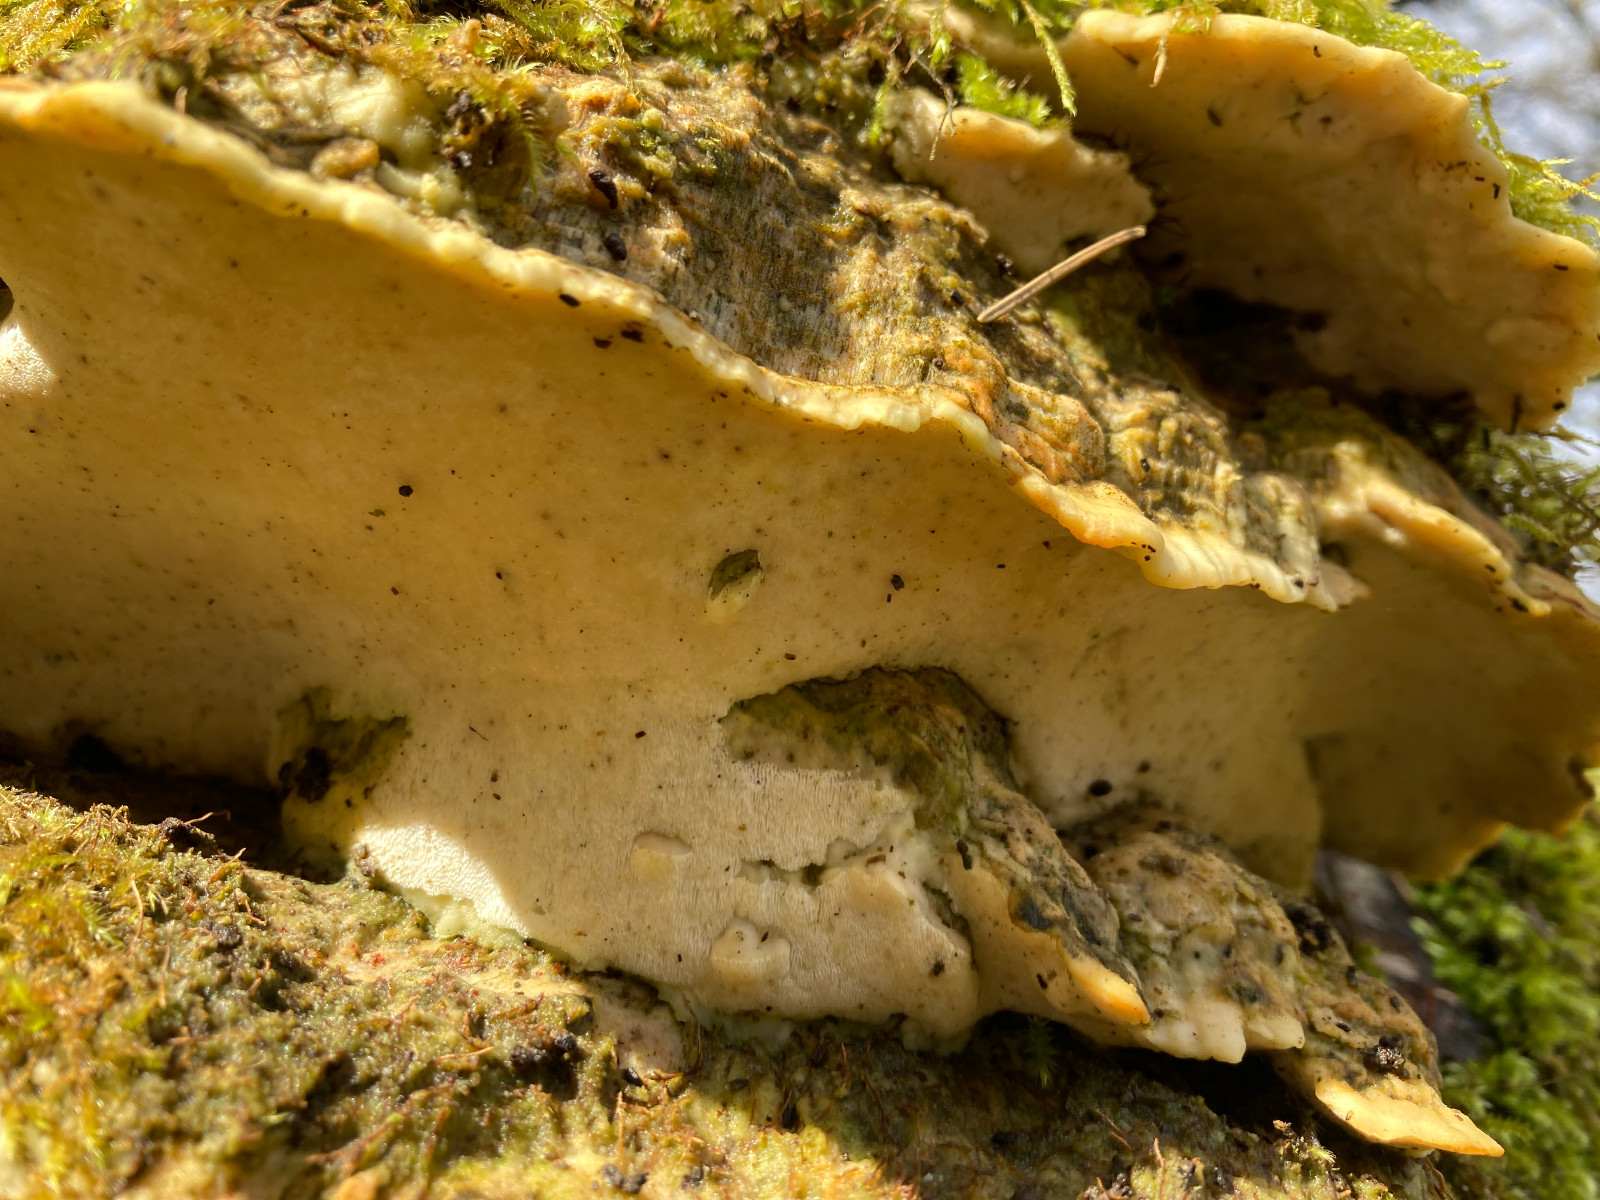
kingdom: Fungi
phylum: Basidiomycota
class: Agaricomycetes
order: Hymenochaetales
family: Oxyporaceae
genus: Oxyporus
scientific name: Oxyporus populinus
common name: sammenvokset trylleporesvamp
